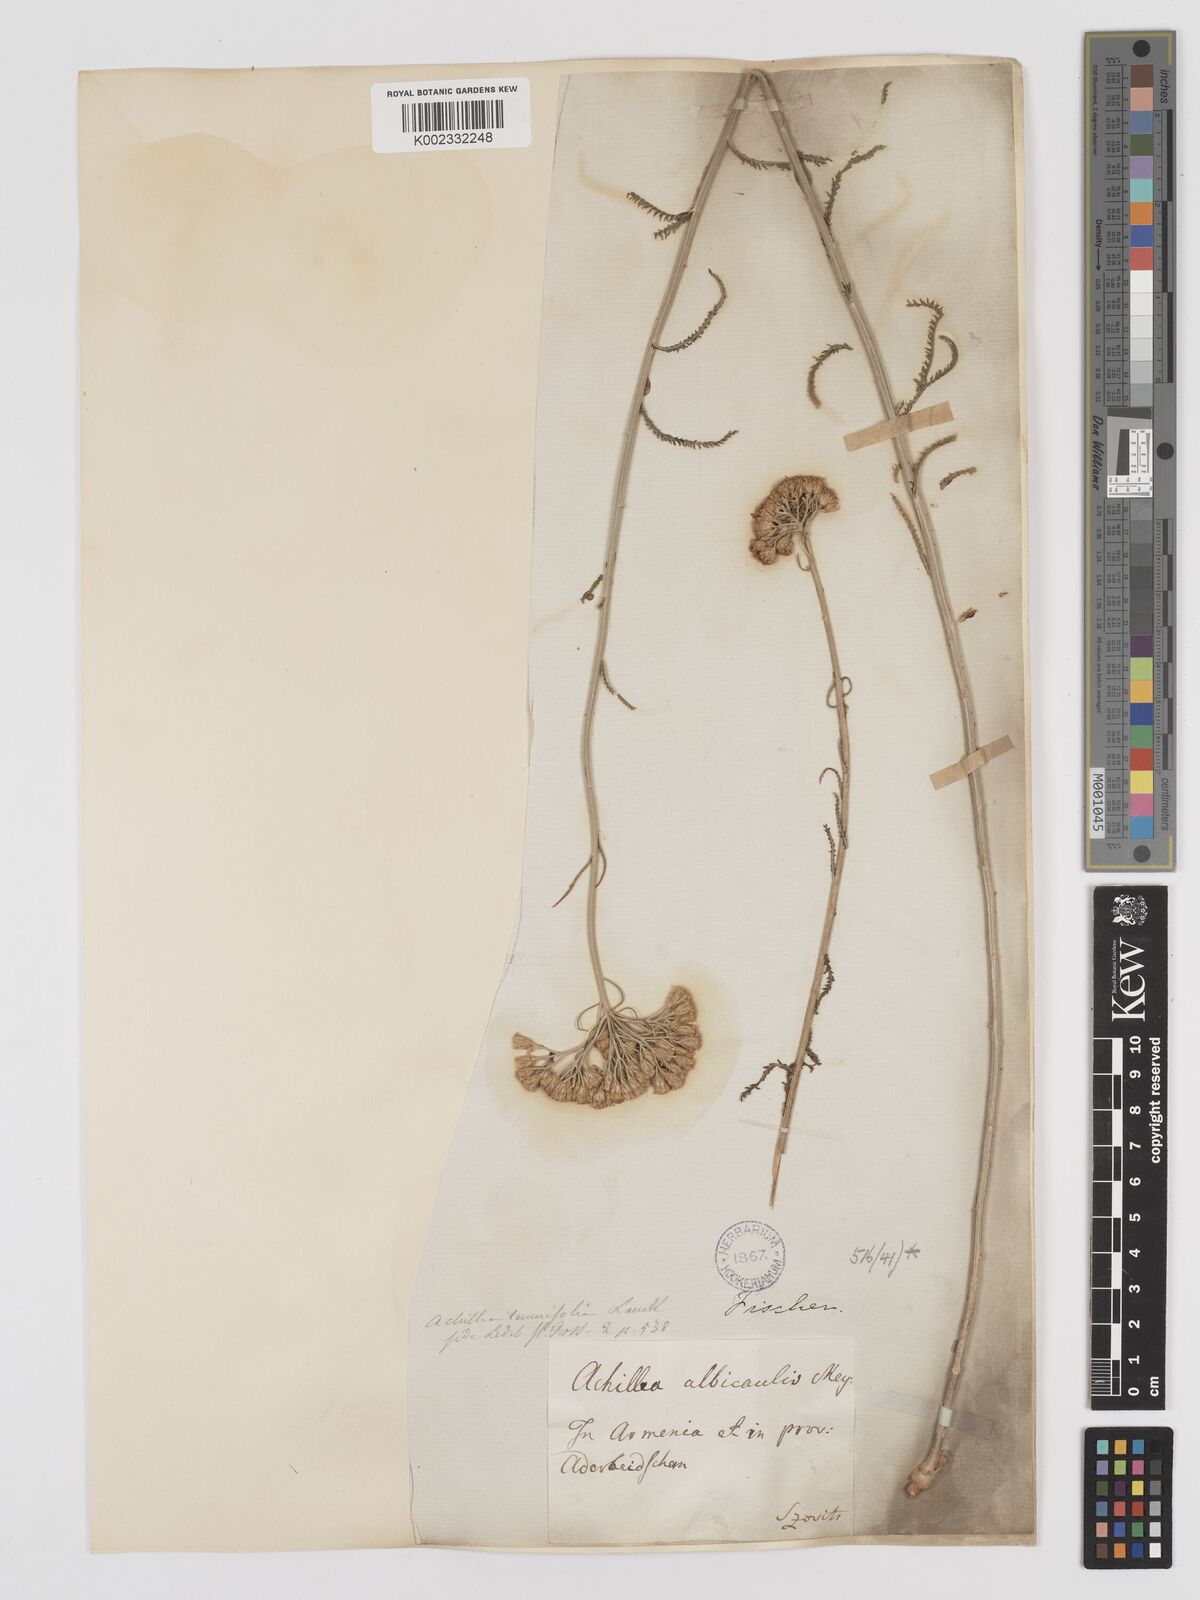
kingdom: Plantae
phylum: Tracheophyta
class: Magnoliopsida
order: Asterales
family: Asteraceae
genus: Achillea
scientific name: Achillea tenuifolia
